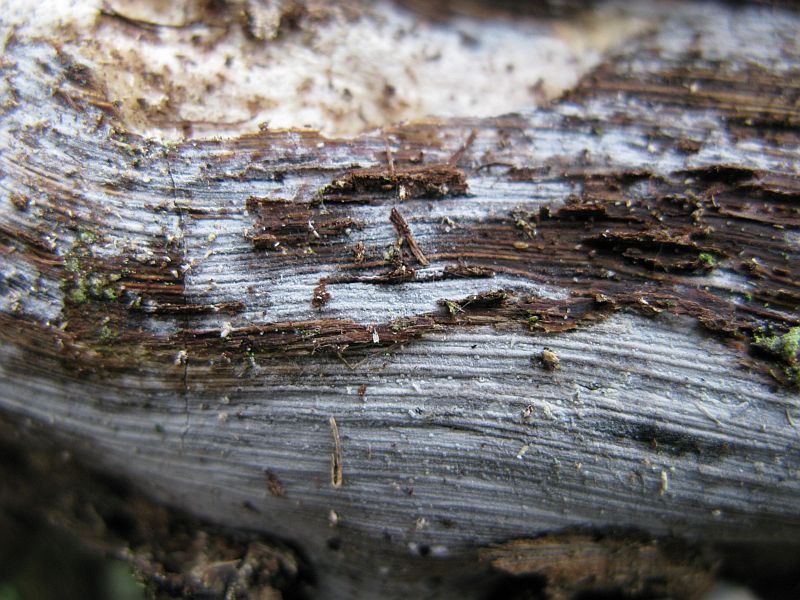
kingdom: Fungi
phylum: Basidiomycota
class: Agaricomycetes
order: Cantharellales
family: Hydnaceae
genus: Sistotrema
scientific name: Sistotrema brinkmannii
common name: bønnesporet kroneskorpe
